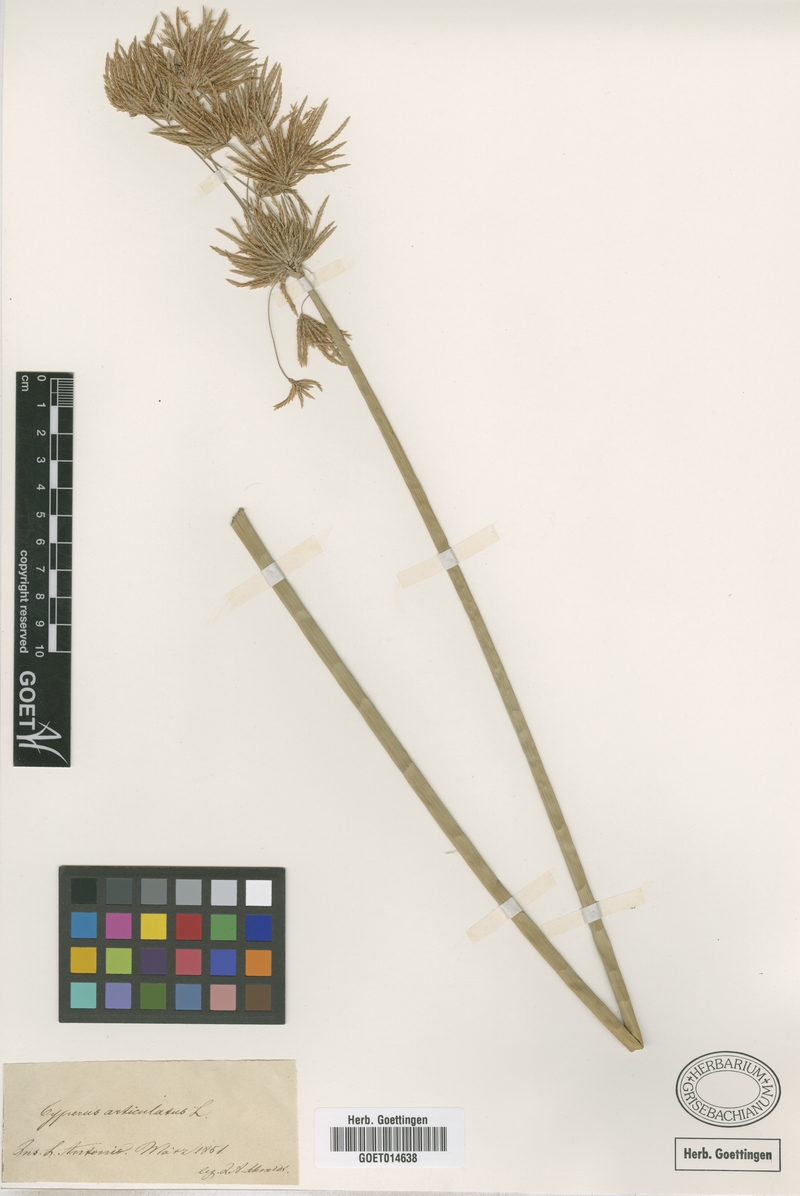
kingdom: Plantae
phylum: Tracheophyta
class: Liliopsida
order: Poales
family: Cyperaceae
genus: Cyperus
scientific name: Cyperus articulatus
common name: Jointed flatsedge
